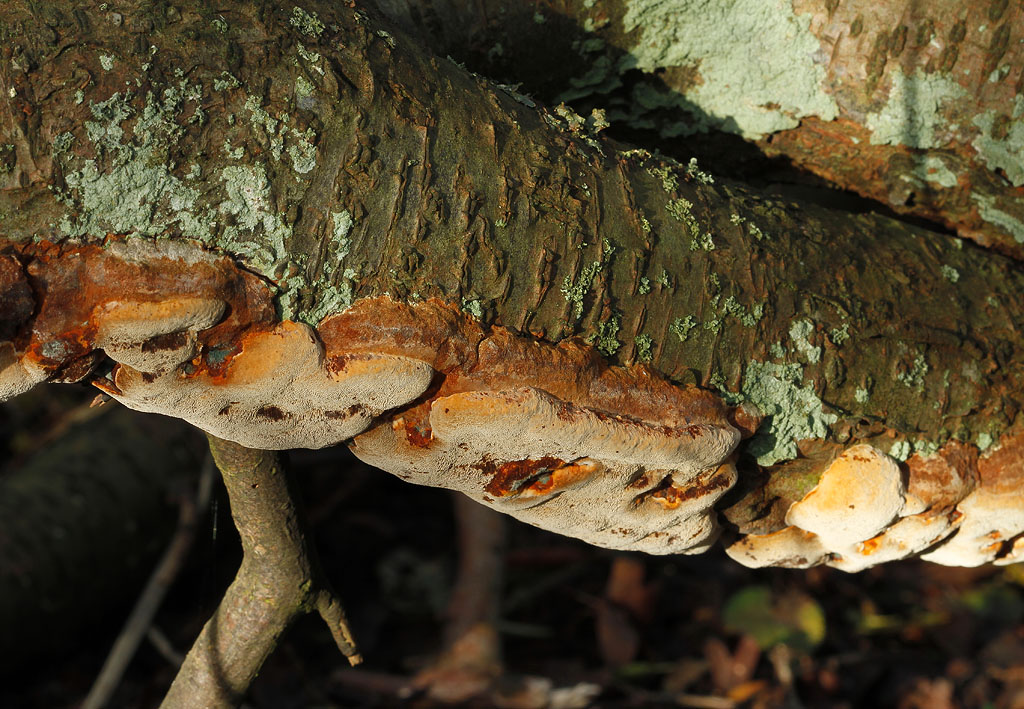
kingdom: Fungi
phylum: Basidiomycota
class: Agaricomycetes
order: Hymenochaetales
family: Hymenochaetaceae
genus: Phellinus
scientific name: Phellinus pomaceus
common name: blomme-ildporesvamp
